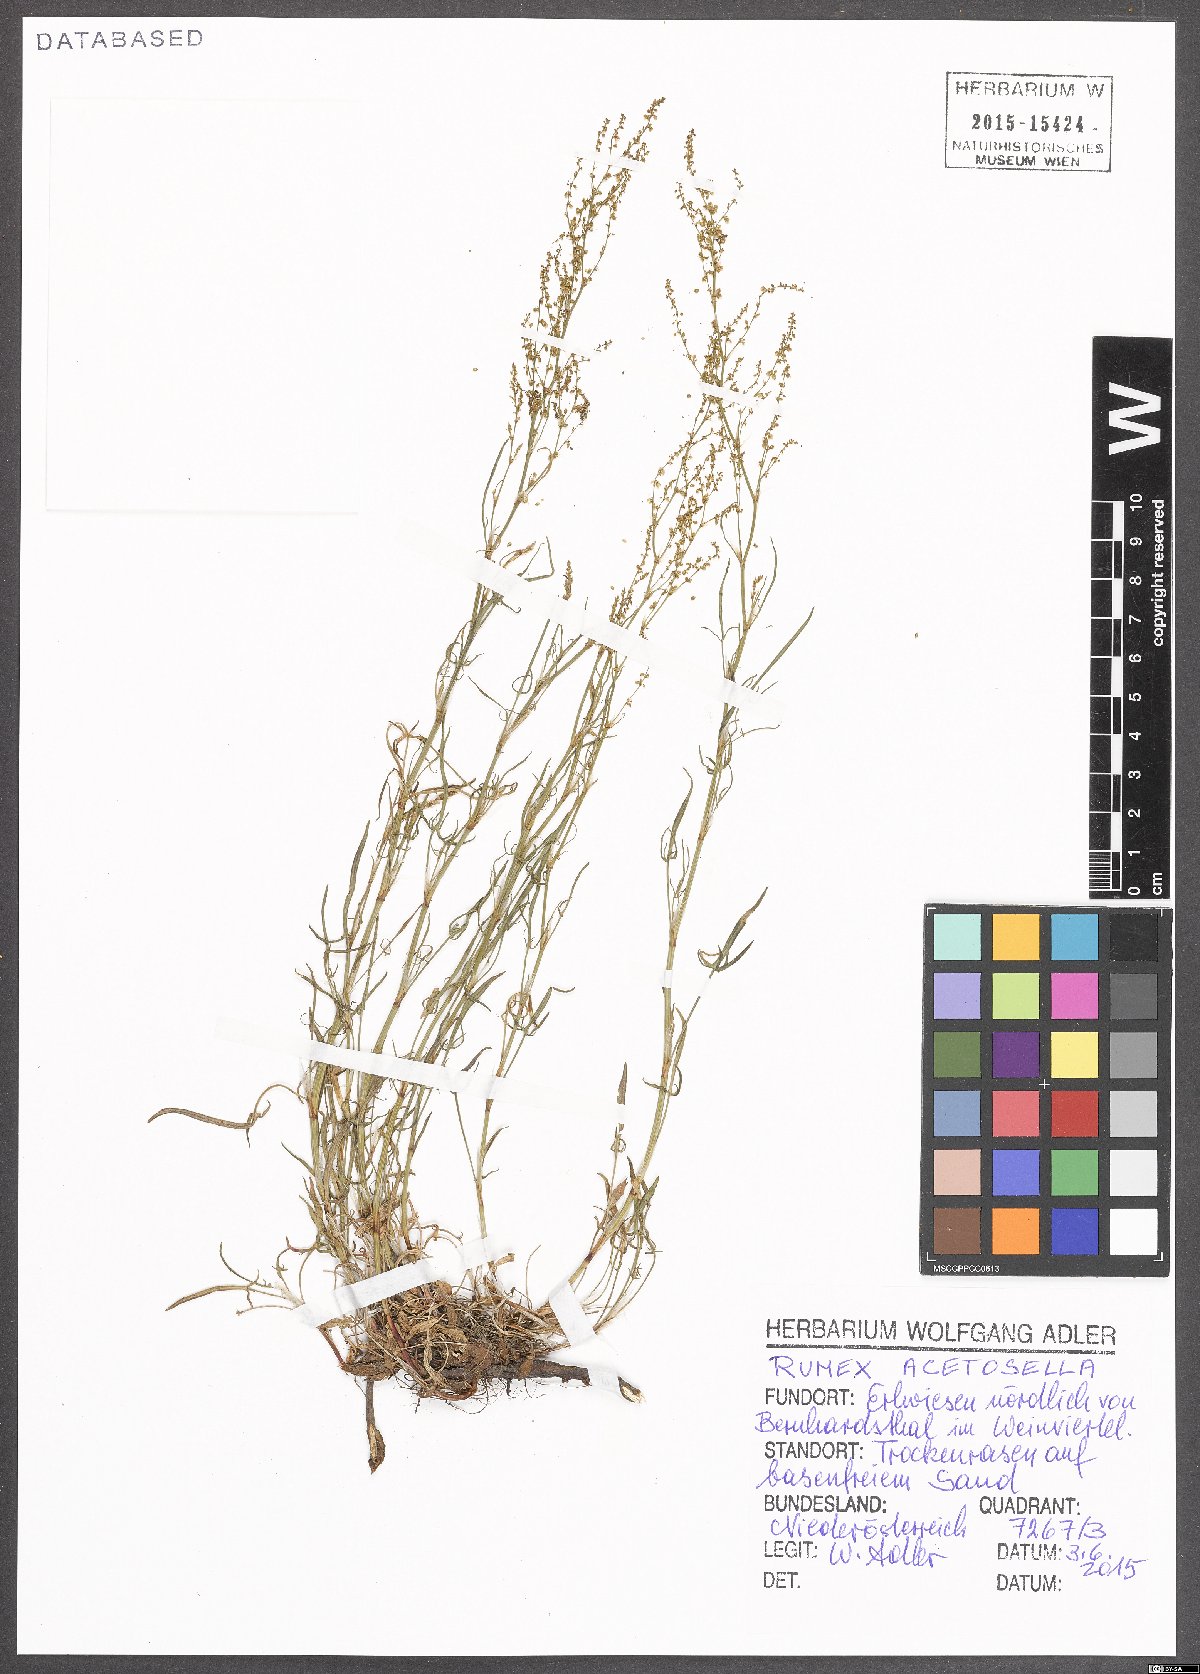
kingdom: Plantae
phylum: Tracheophyta
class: Magnoliopsida
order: Caryophyllales
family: Polygonaceae
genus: Rumex
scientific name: Rumex acetosella
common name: Common sheep sorrel
